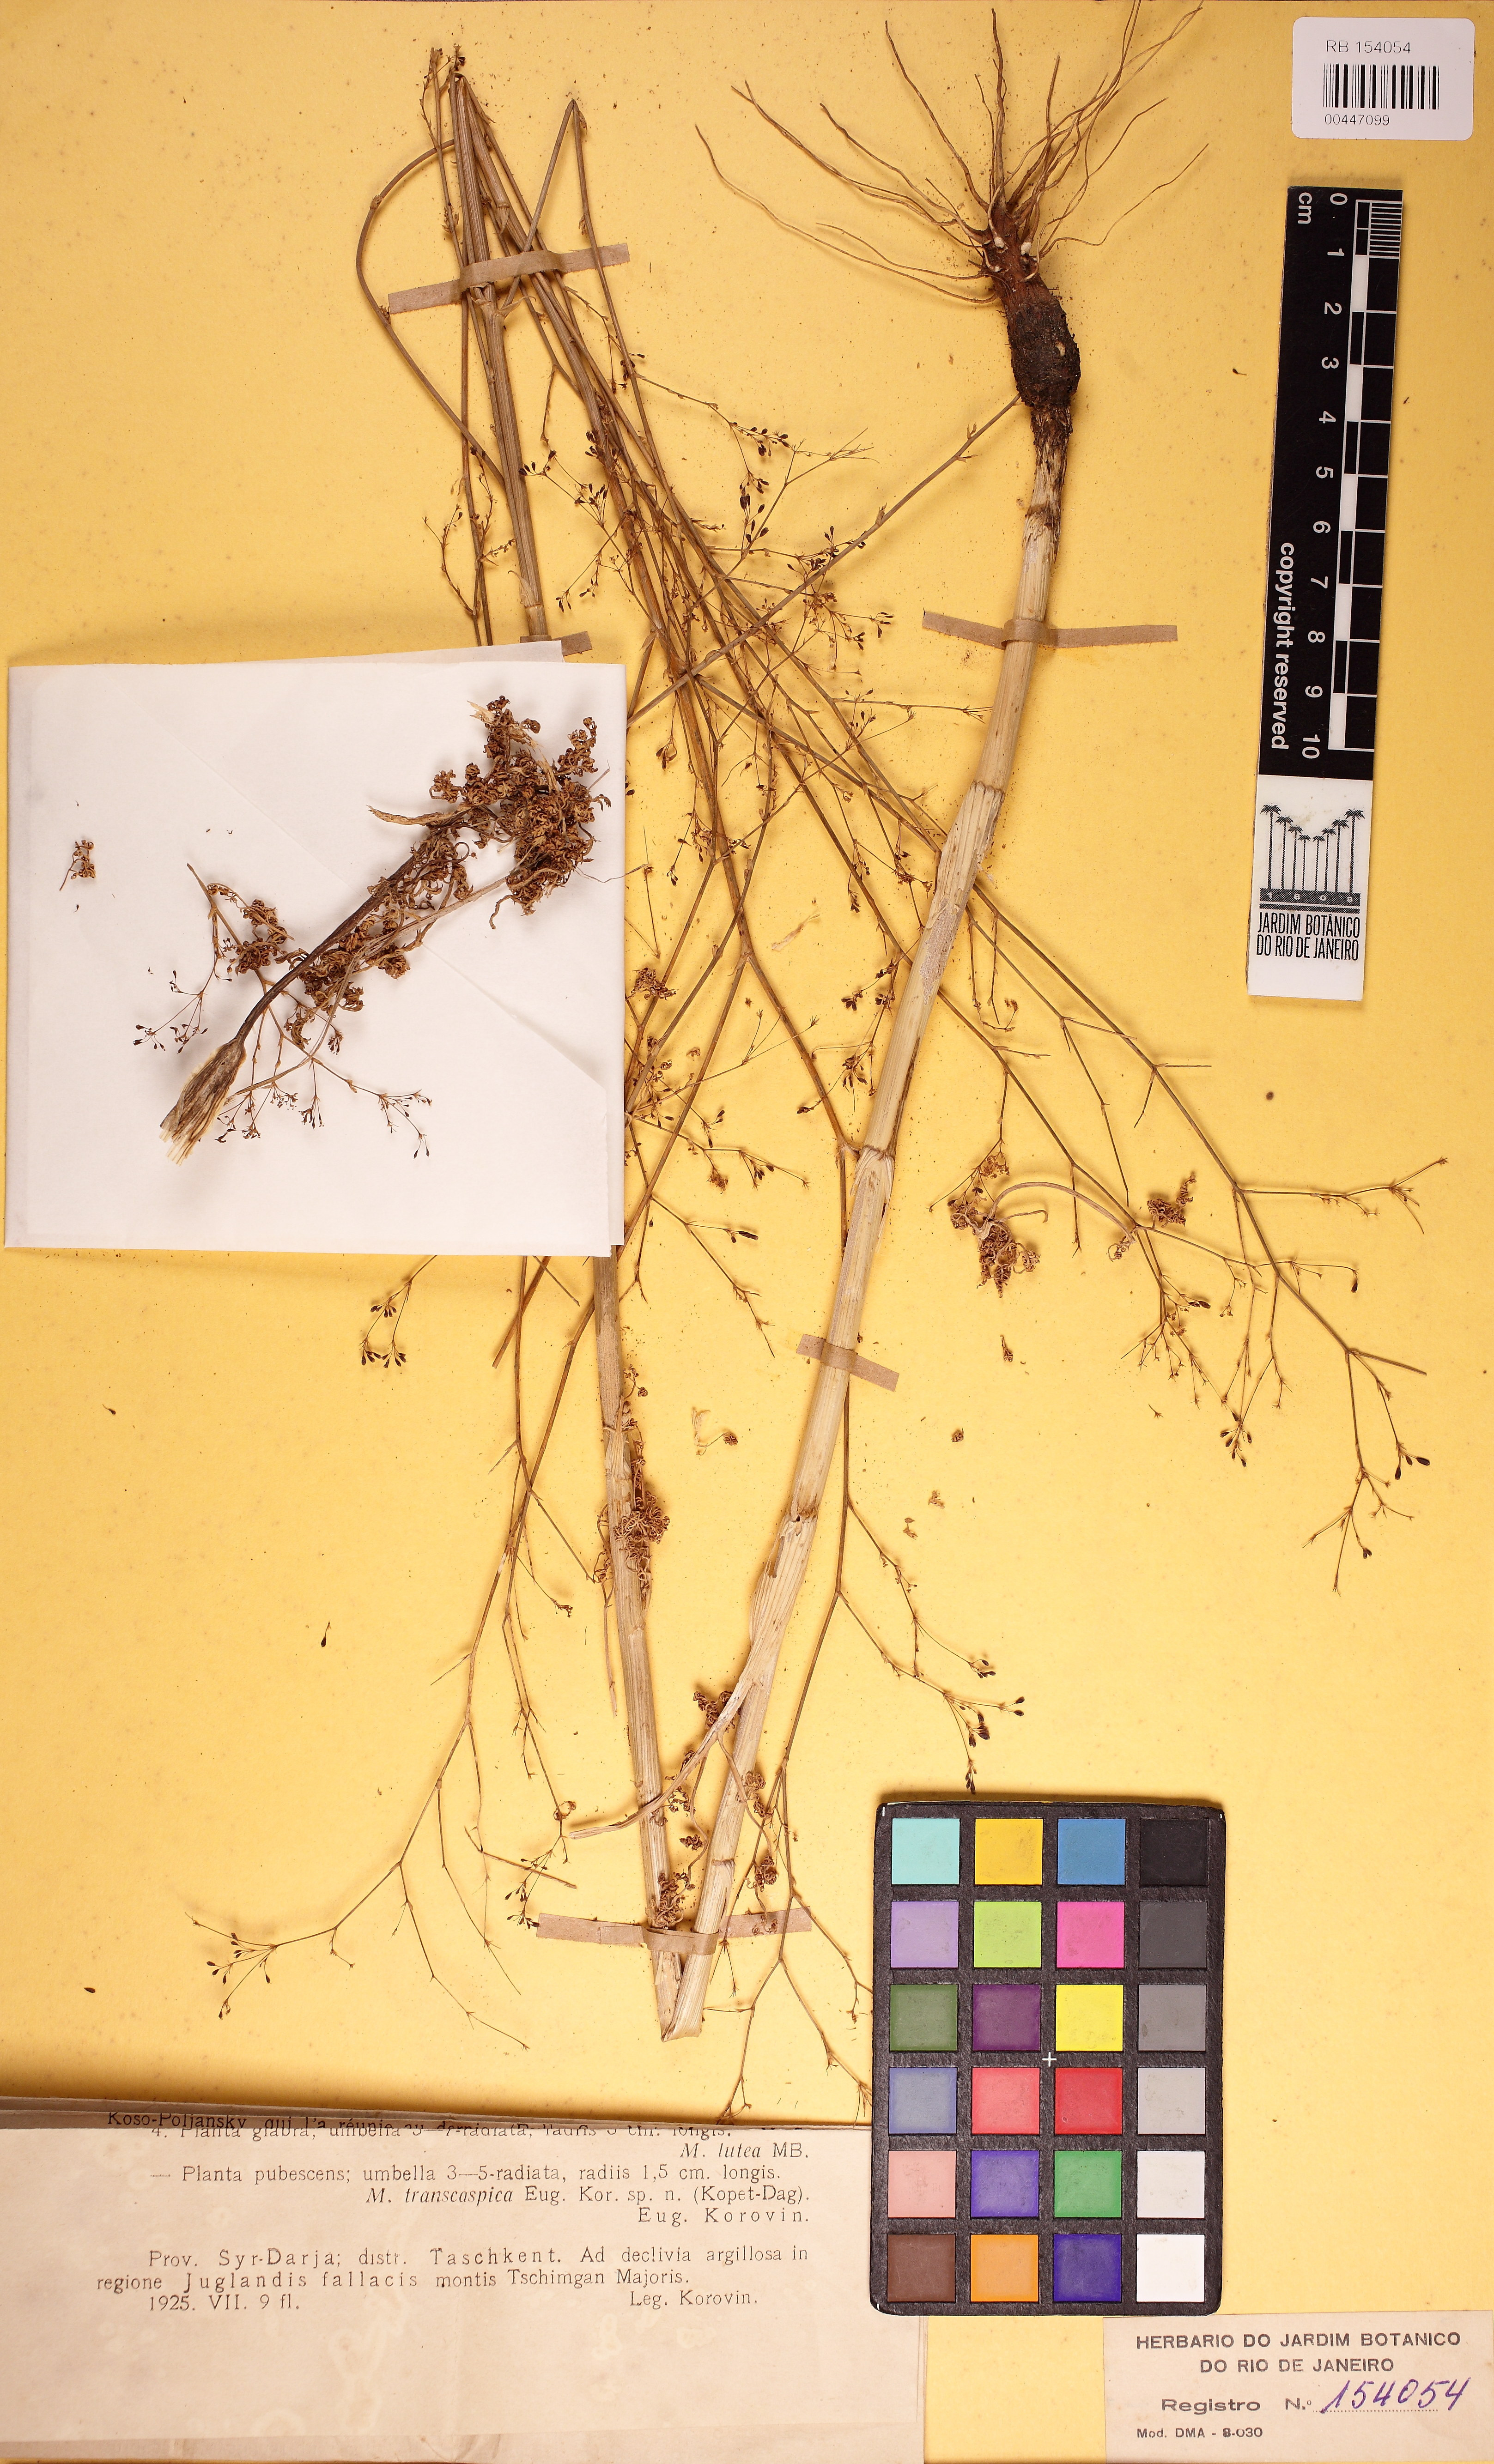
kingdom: Plantae
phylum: Tracheophyta
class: Magnoliopsida
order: Apiales
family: Apiaceae
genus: Scaligeria
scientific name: Scaligeria kuramensis
